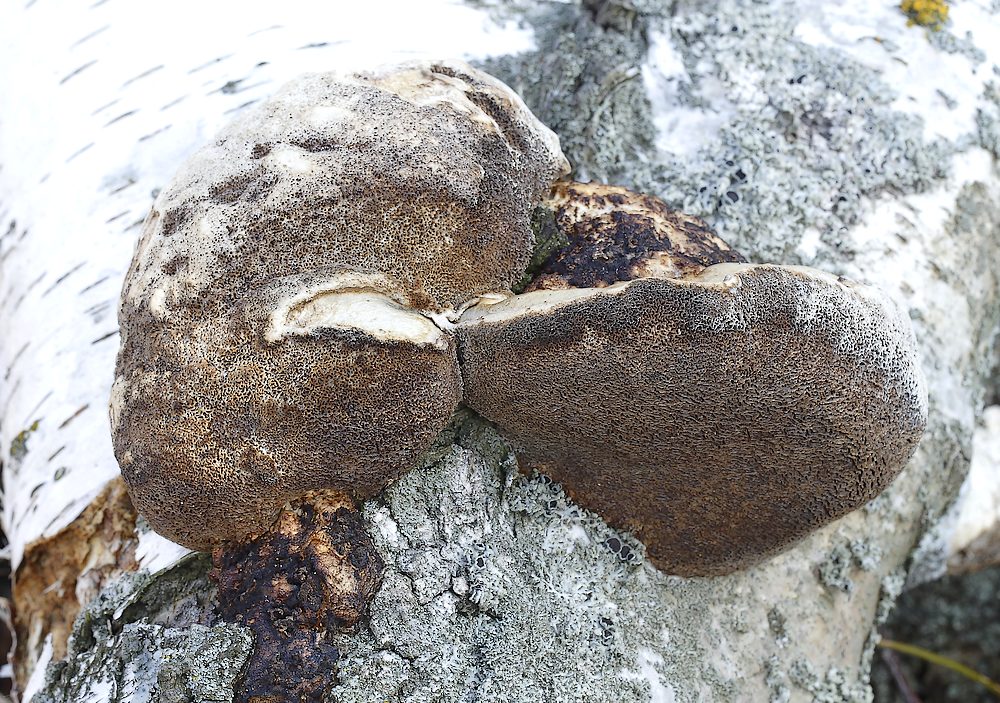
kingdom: Fungi
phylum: Basidiomycota
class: Agaricomycetes
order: Polyporales
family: Polyporaceae
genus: Daedaleopsis
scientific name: Daedaleopsis confragosa
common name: rødmende læderporesvamp
